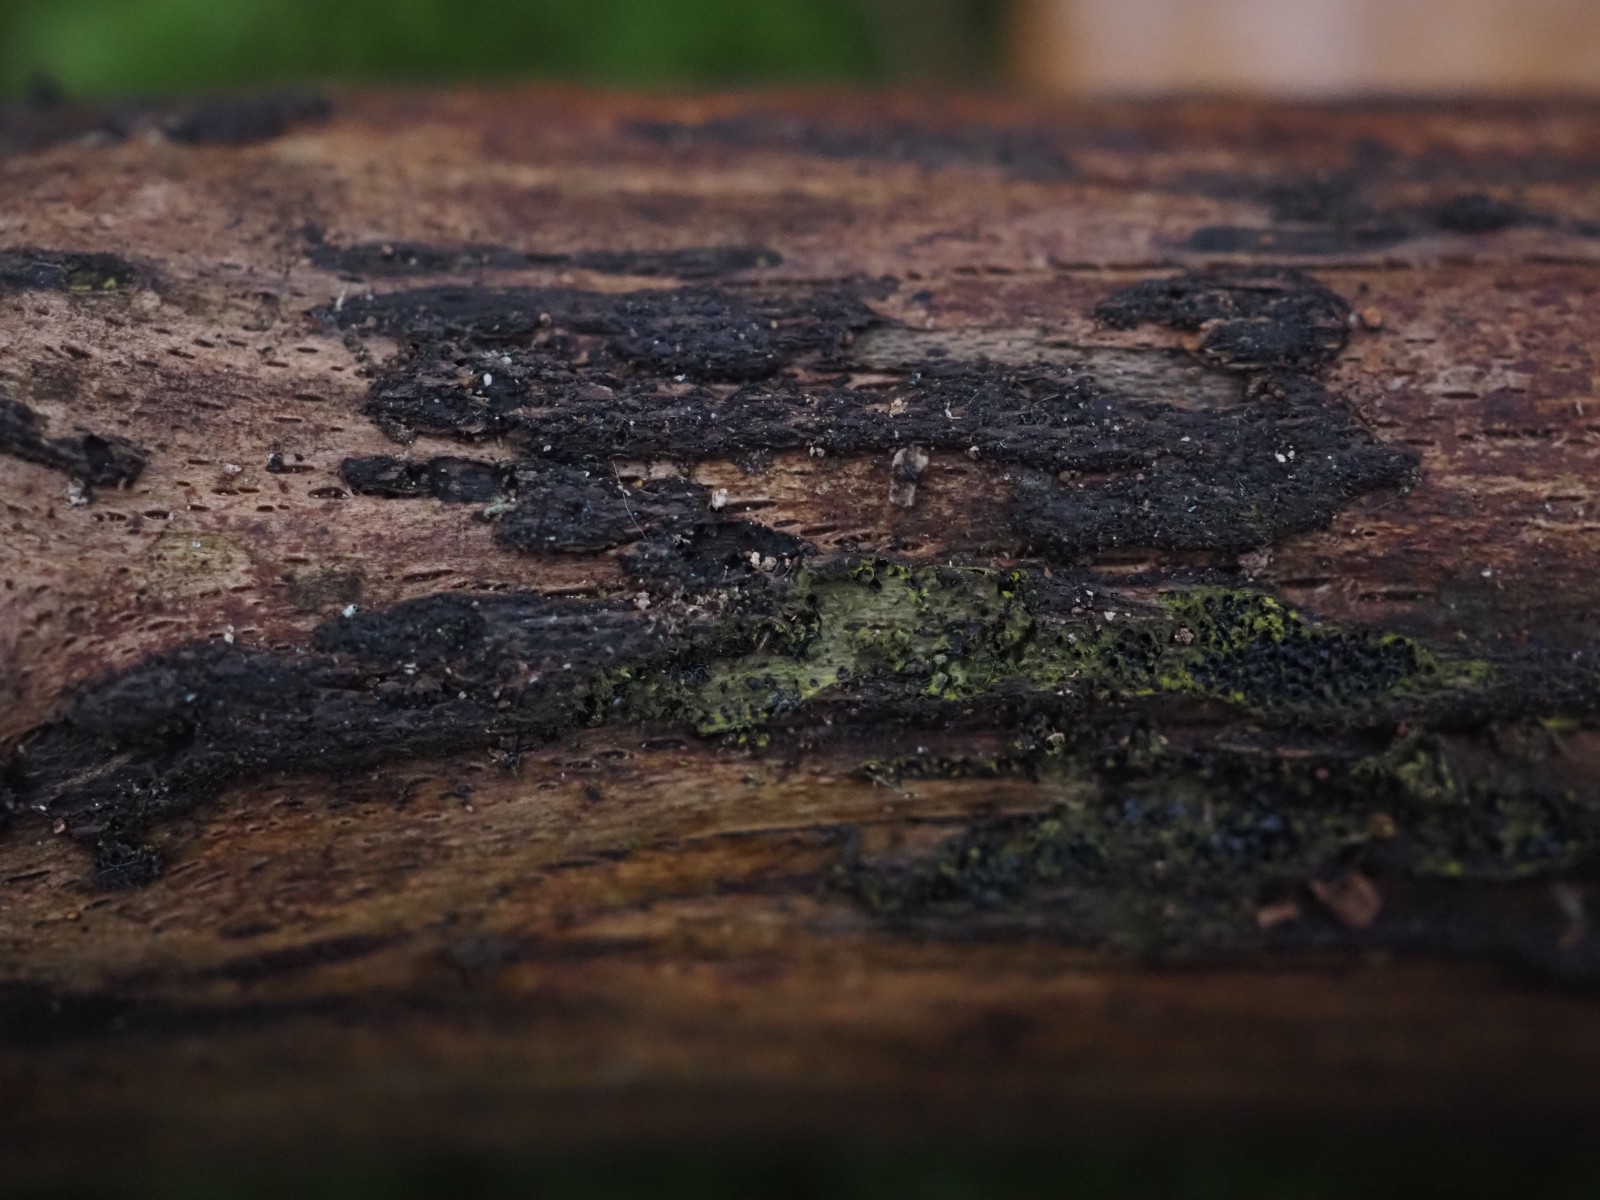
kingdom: Fungi
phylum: Ascomycota
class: Sordariomycetes
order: Xylariales
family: Diatrypaceae
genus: Eutypa
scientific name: Eutypa flavovirens
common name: grønkødet kulskorpe
